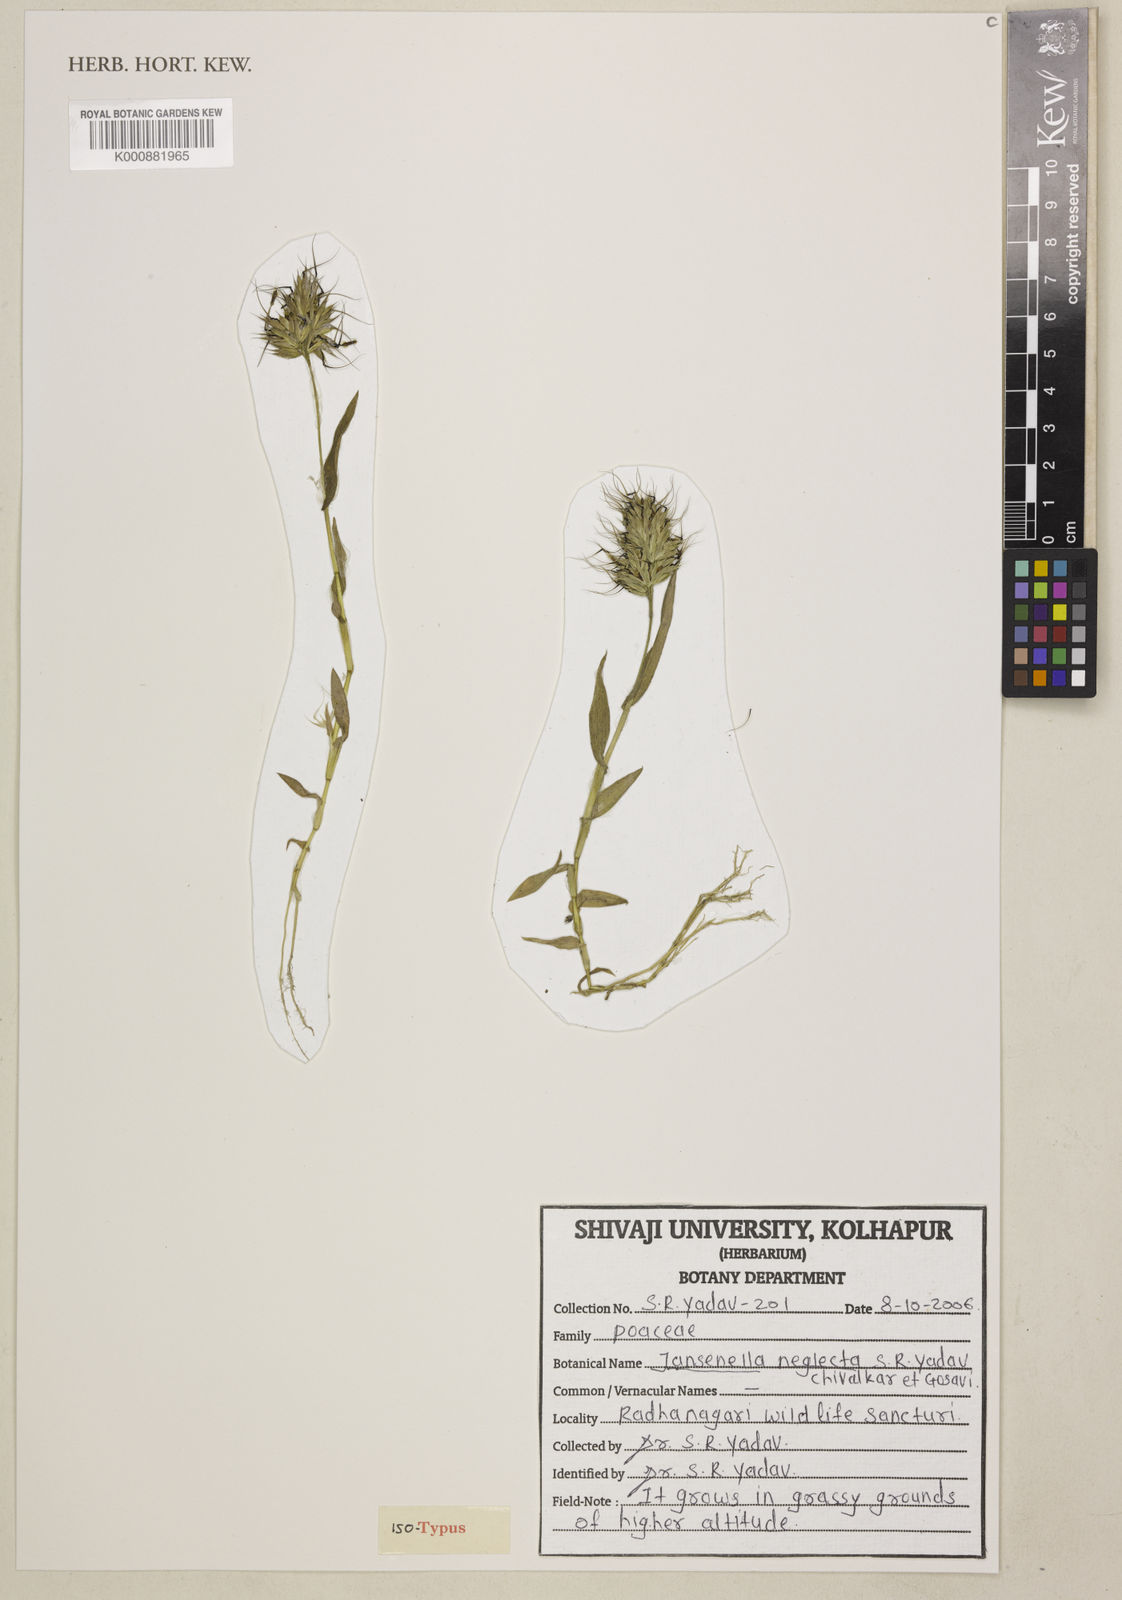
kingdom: Plantae
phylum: Tracheophyta
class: Liliopsida
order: Poales
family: Poaceae
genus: Jansenella
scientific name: Jansenella neglecta
